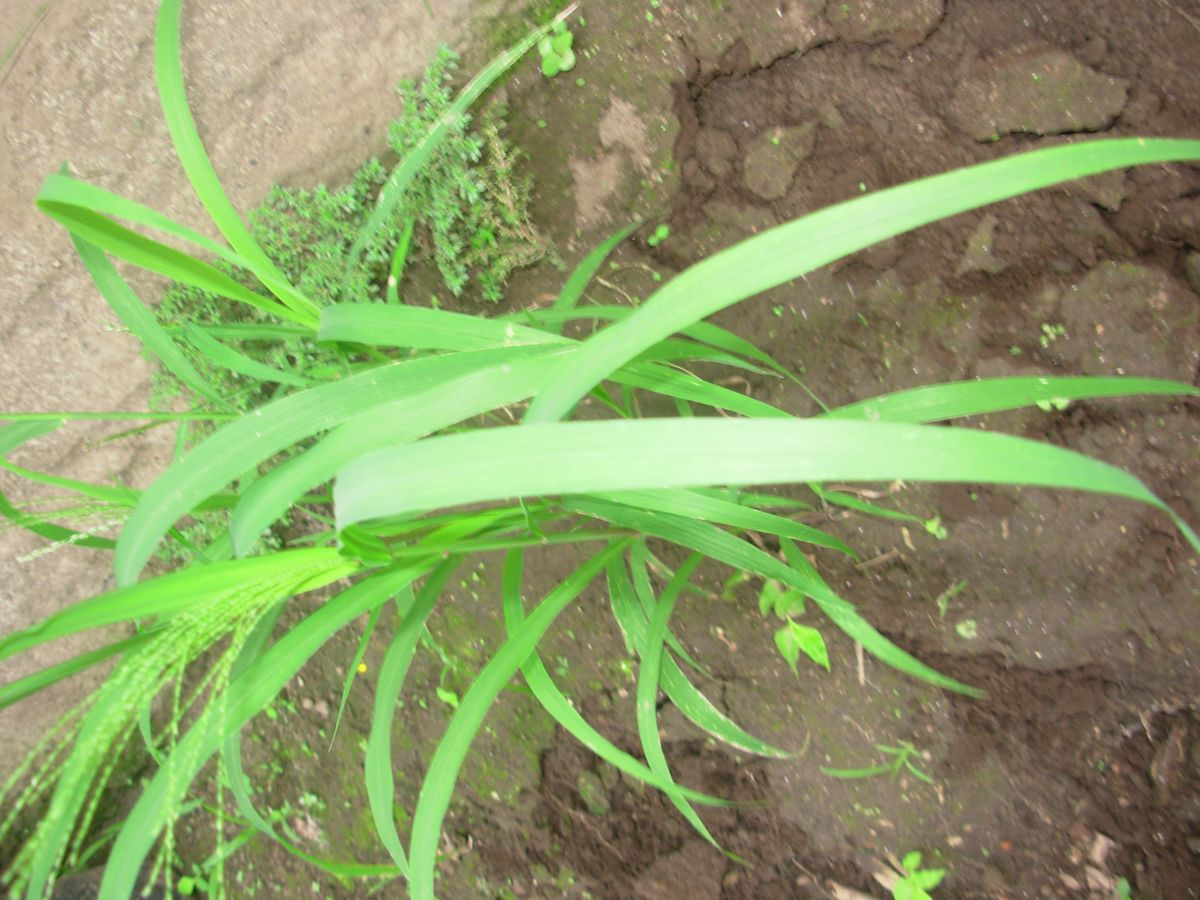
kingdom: Plantae
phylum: Tracheophyta
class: Liliopsida
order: Poales
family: Poaceae
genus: Leptochloa
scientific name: Leptochloa mucronata
